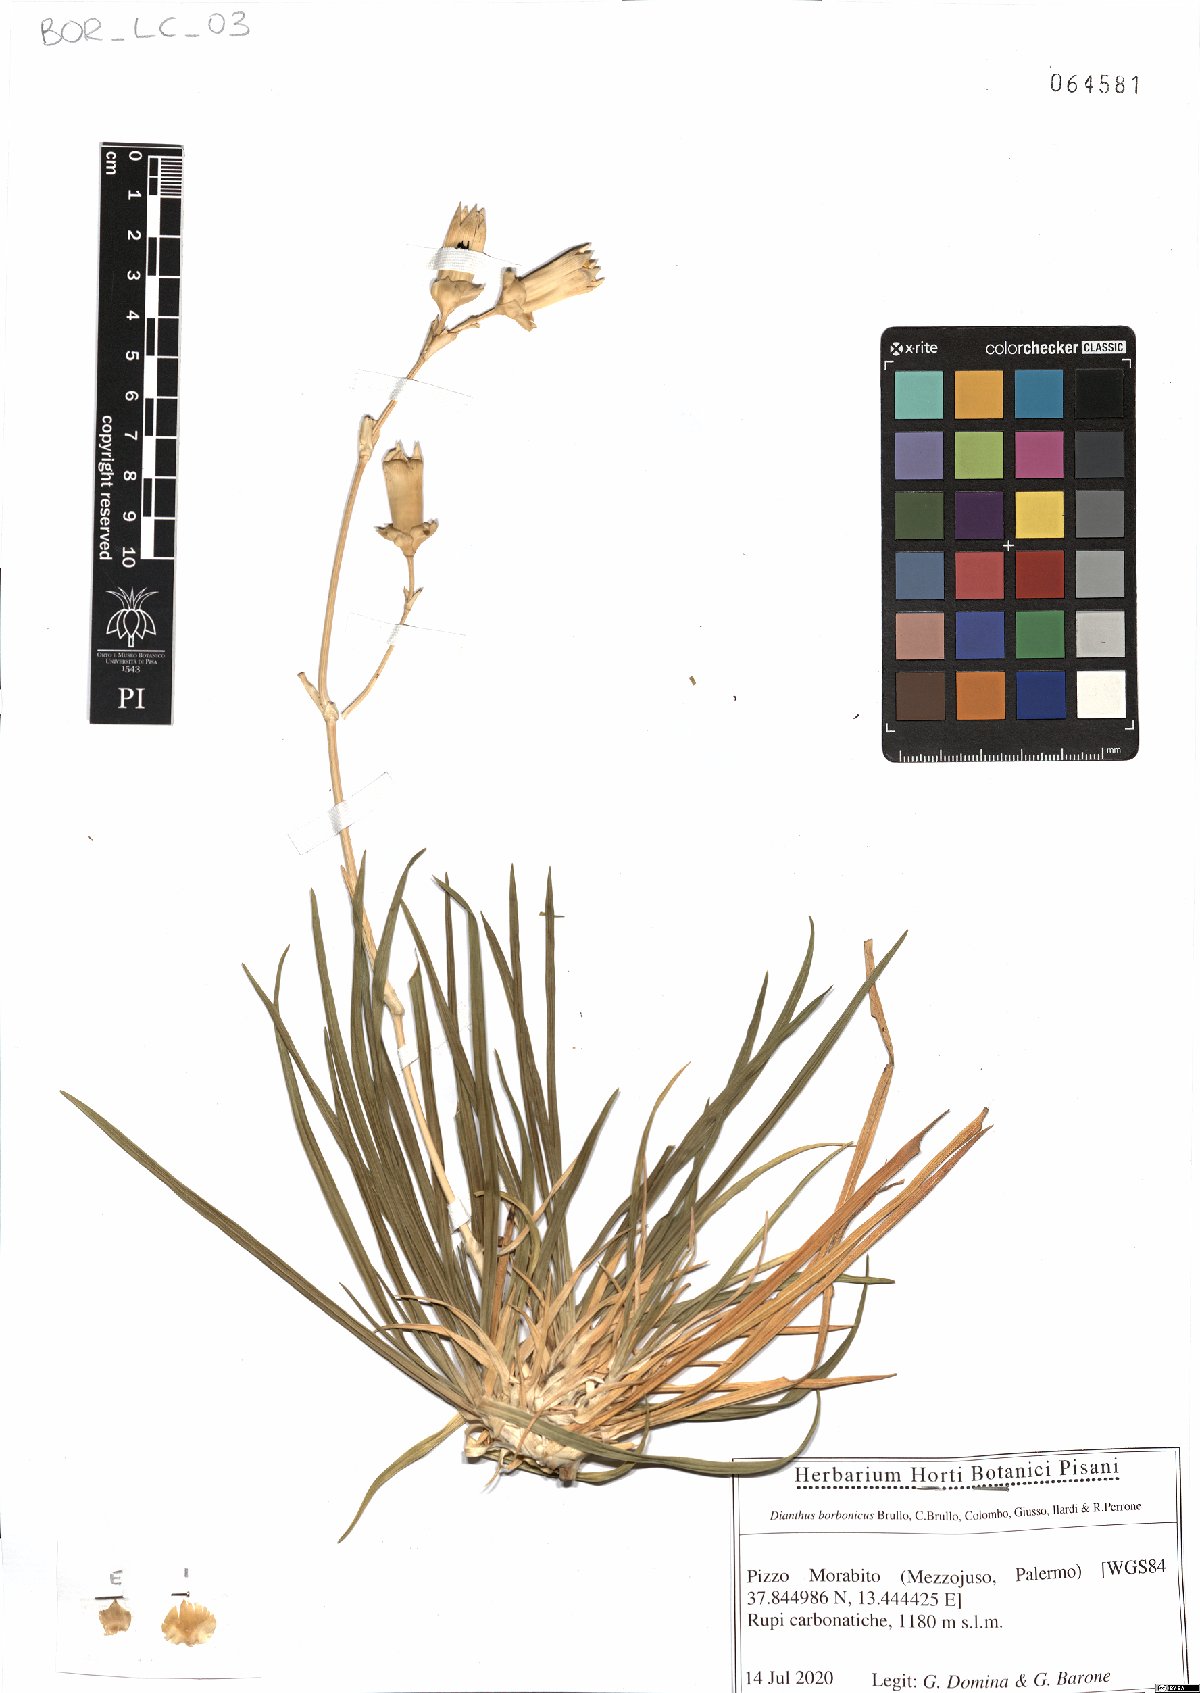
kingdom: Plantae
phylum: Tracheophyta
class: Magnoliopsida
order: Caryophyllales
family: Caryophyllaceae
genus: Dianthus
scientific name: Dianthus borbonicus
